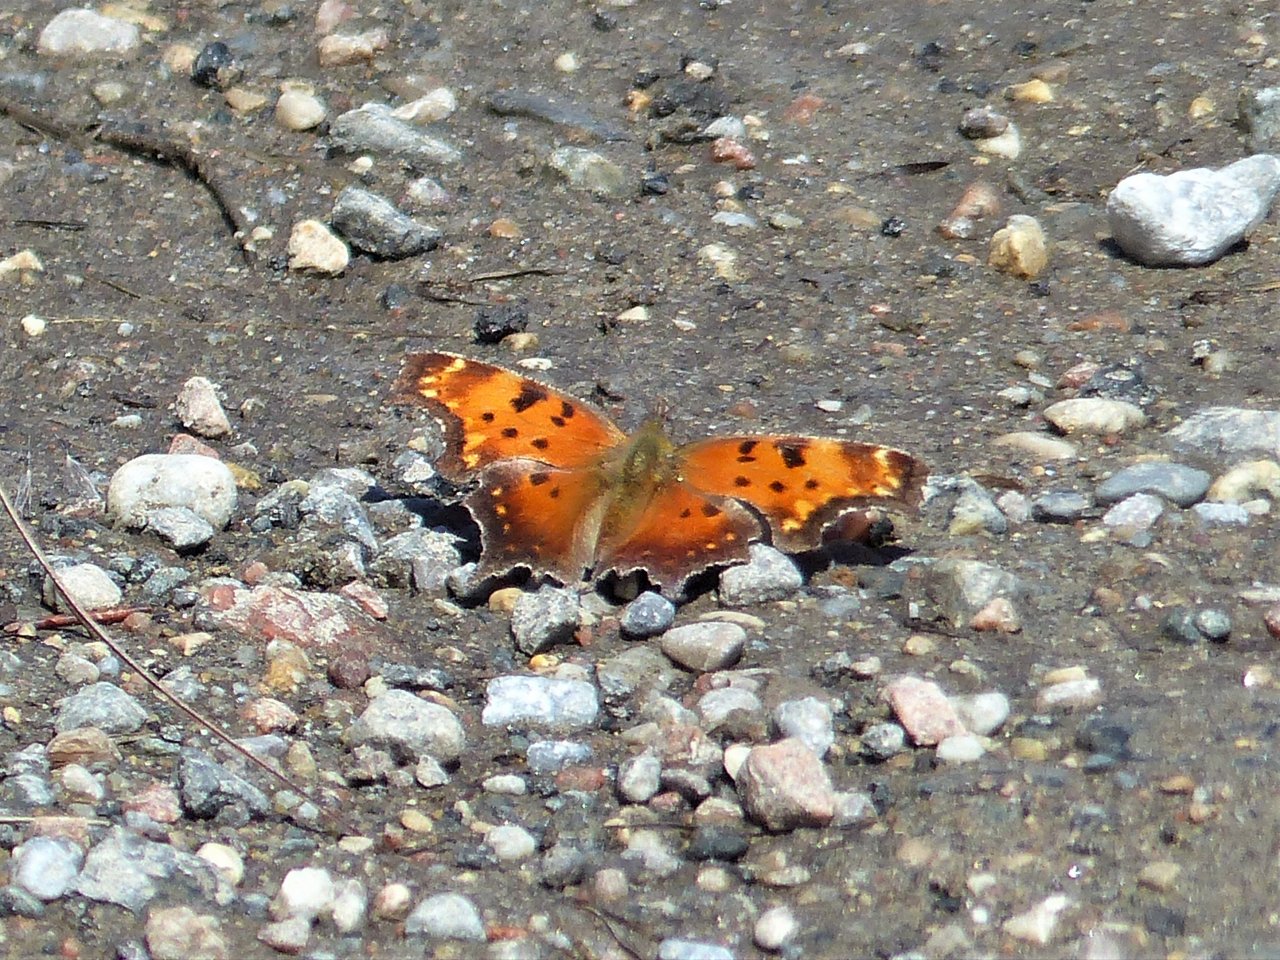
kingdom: Animalia
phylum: Arthropoda
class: Insecta
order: Lepidoptera
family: Nymphalidae
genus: Polygonia
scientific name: Polygonia progne
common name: Gray Comma
